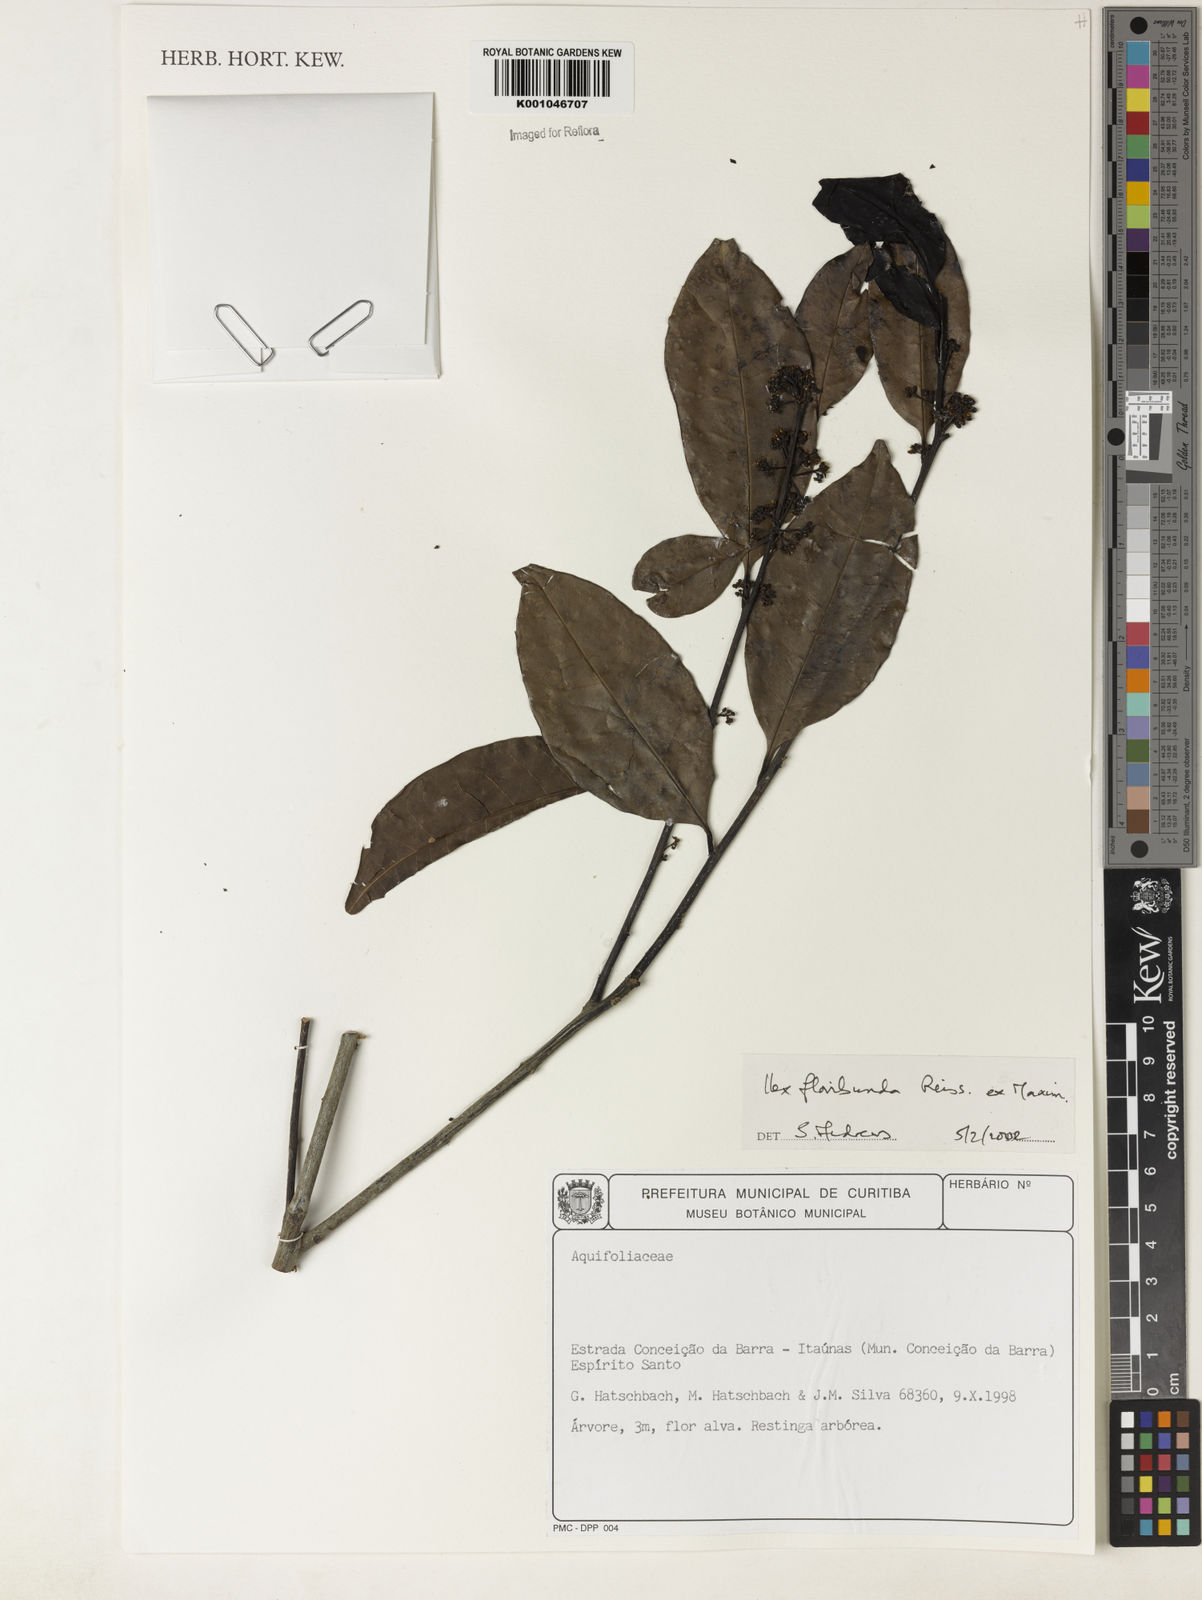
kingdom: Plantae
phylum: Tracheophyta
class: Magnoliopsida
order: Aquifoliales
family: Aquifoliaceae
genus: Ilex
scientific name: Ilex floribunda
